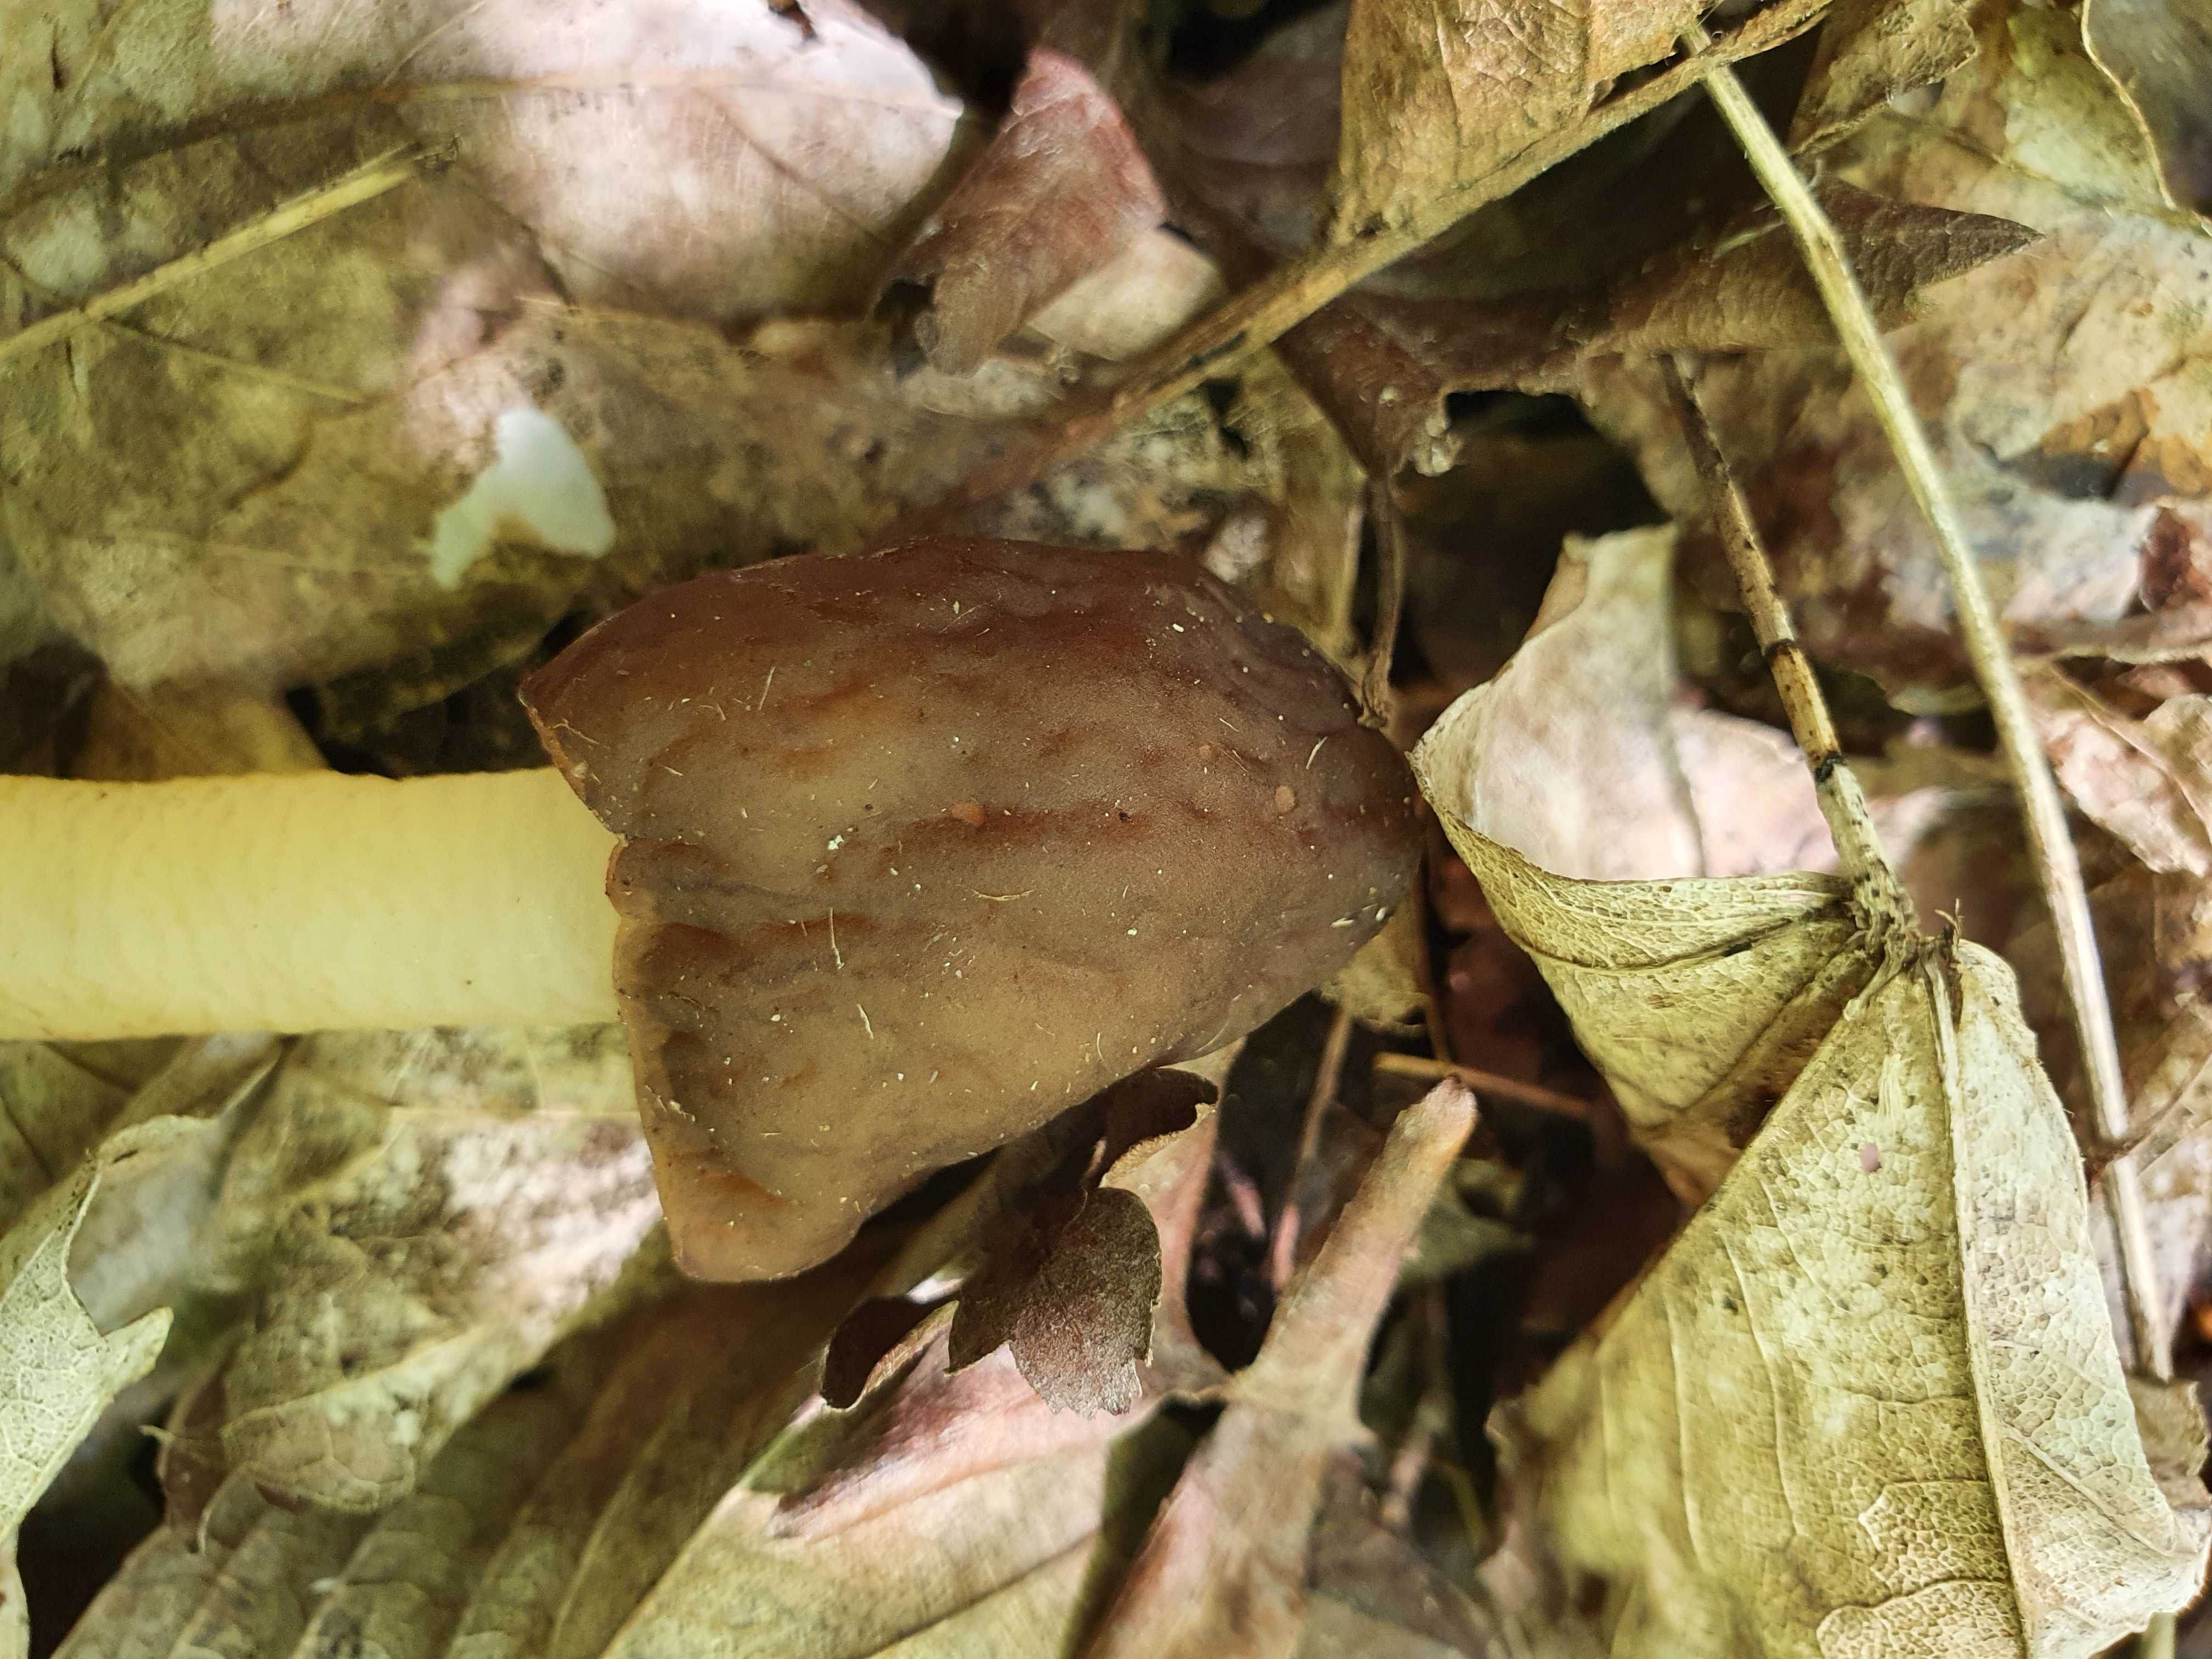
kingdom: Fungi
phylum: Ascomycota
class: Pezizomycetes
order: Pezizales
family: Morchellaceae
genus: Verpa
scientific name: Verpa conica
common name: glat klokkemorkel
